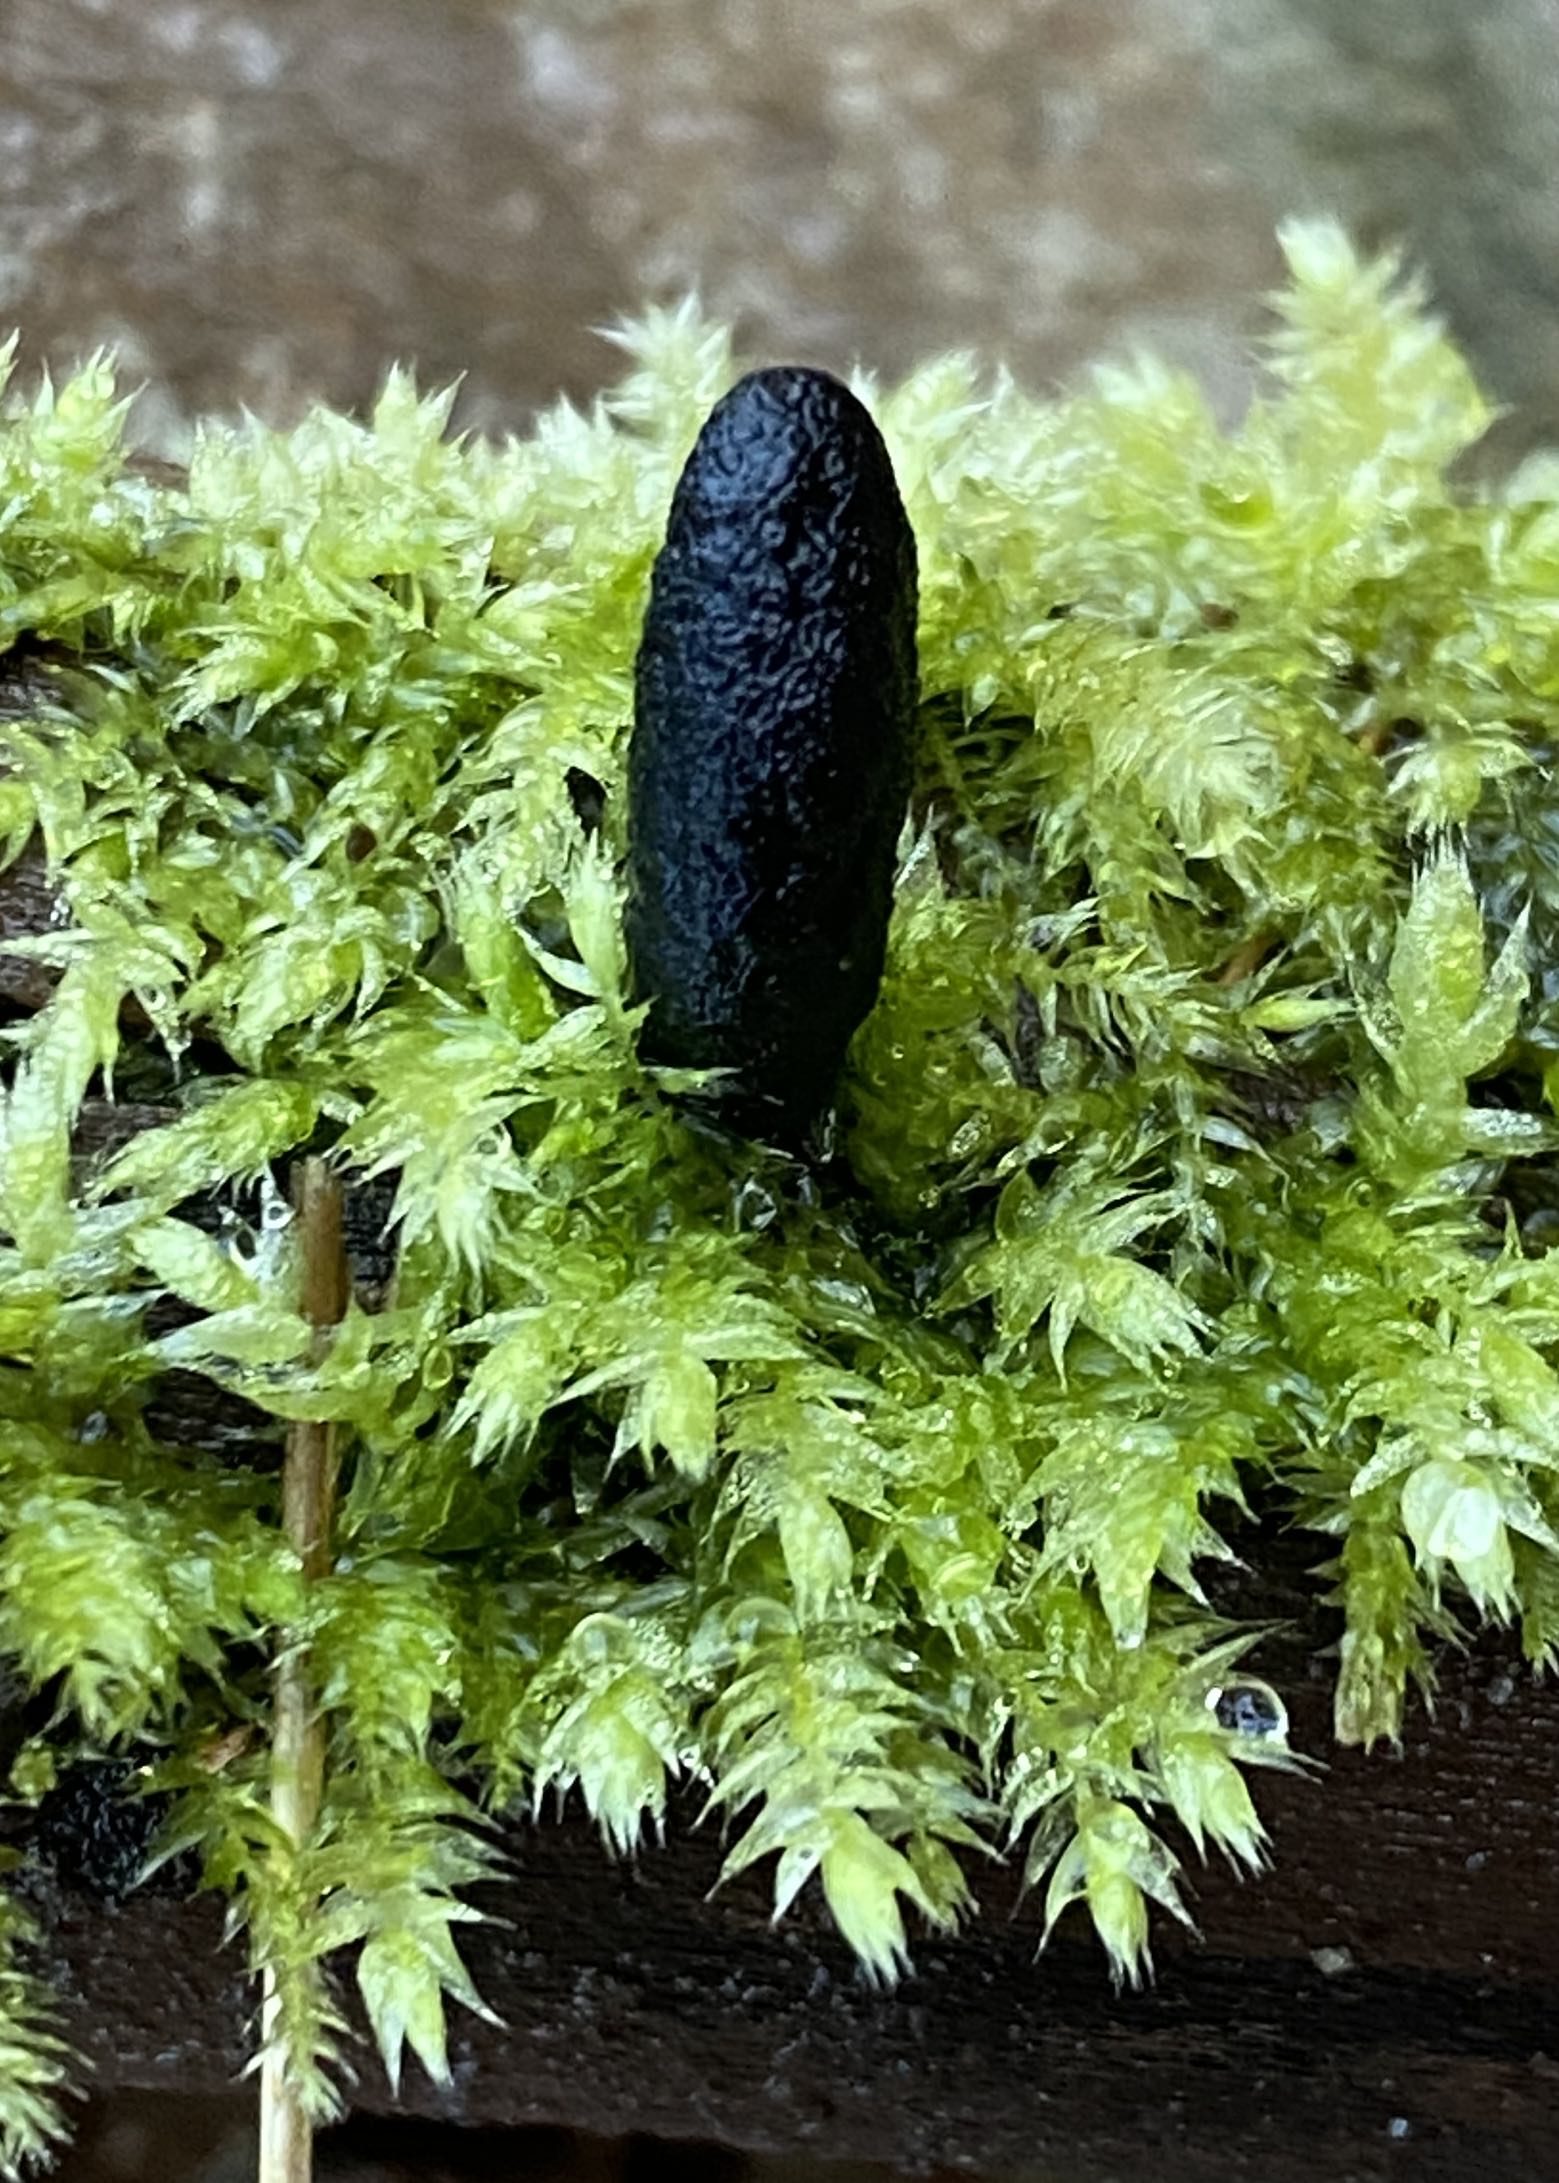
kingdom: Fungi
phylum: Ascomycota
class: Sordariomycetes
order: Xylariales
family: Xylariaceae
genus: Xylaria
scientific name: Xylaria longipes
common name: slank stødsvamp
